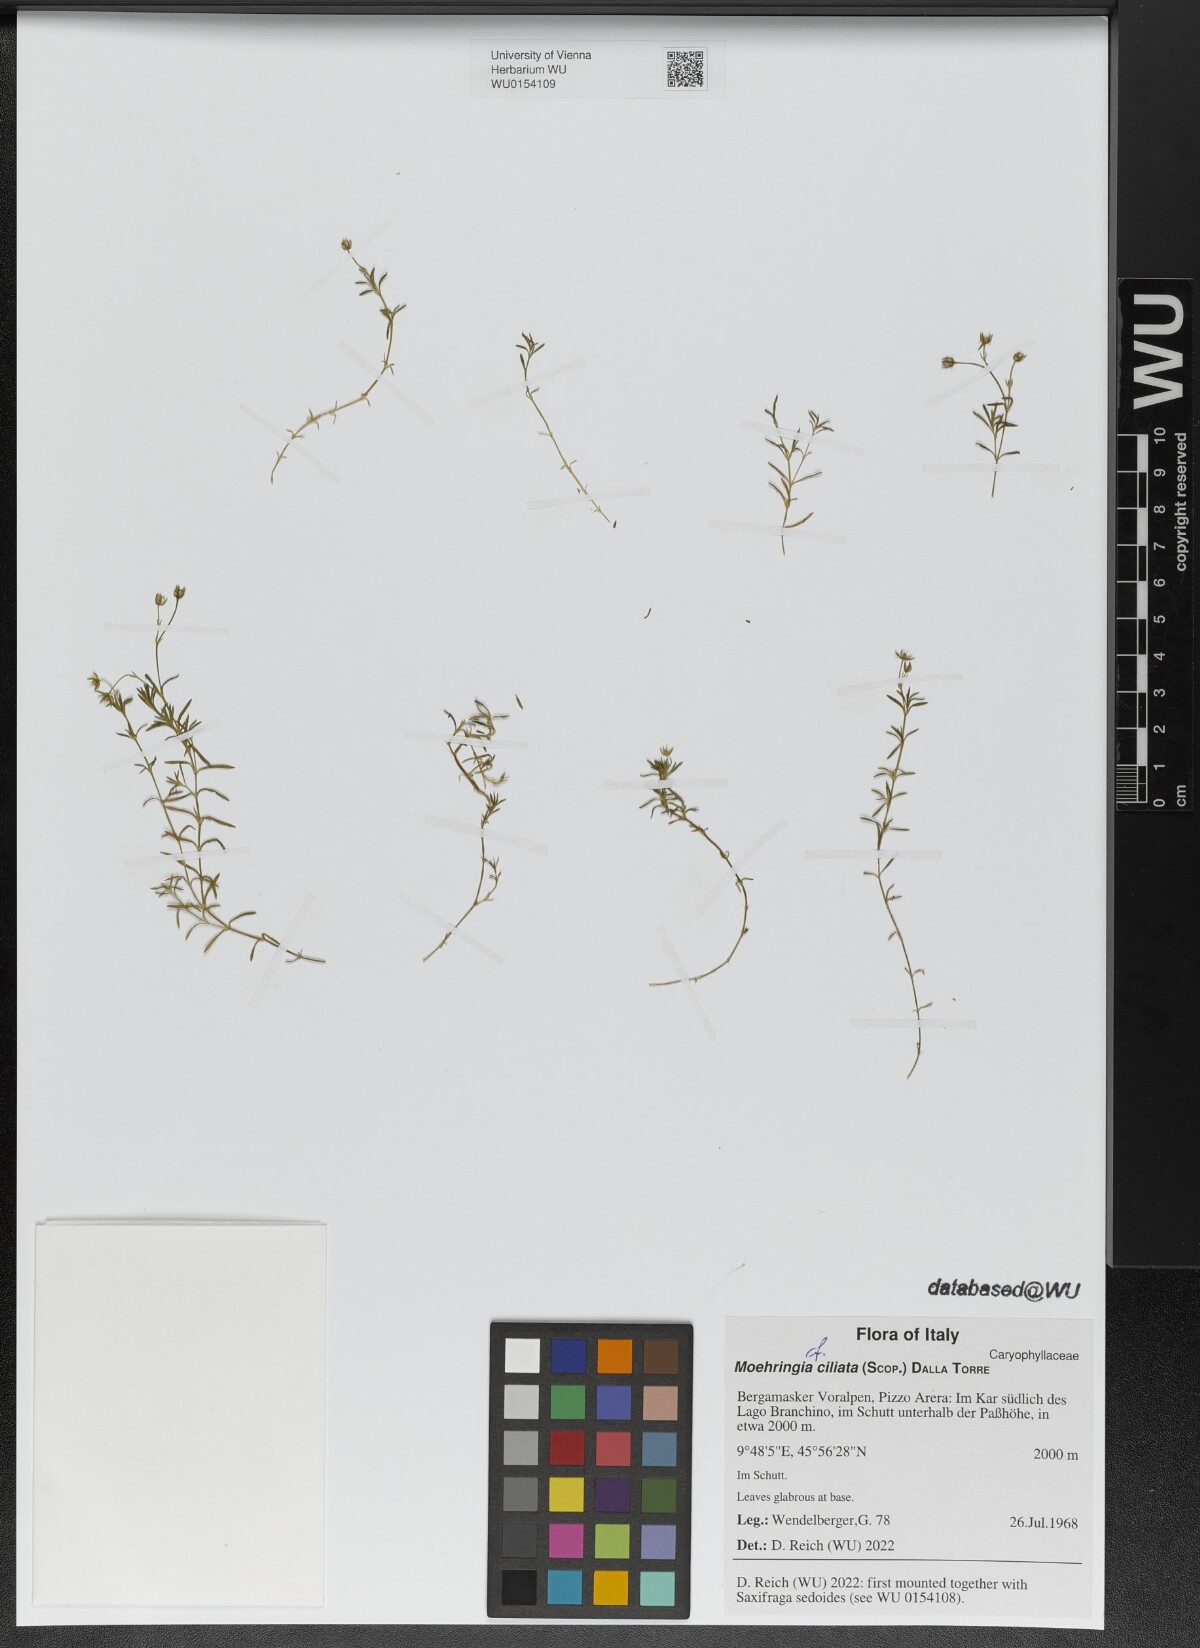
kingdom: Plantae
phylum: Tracheophyta
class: Magnoliopsida
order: Caryophyllales
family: Caryophyllaceae
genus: Moehringia
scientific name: Moehringia ciliata
